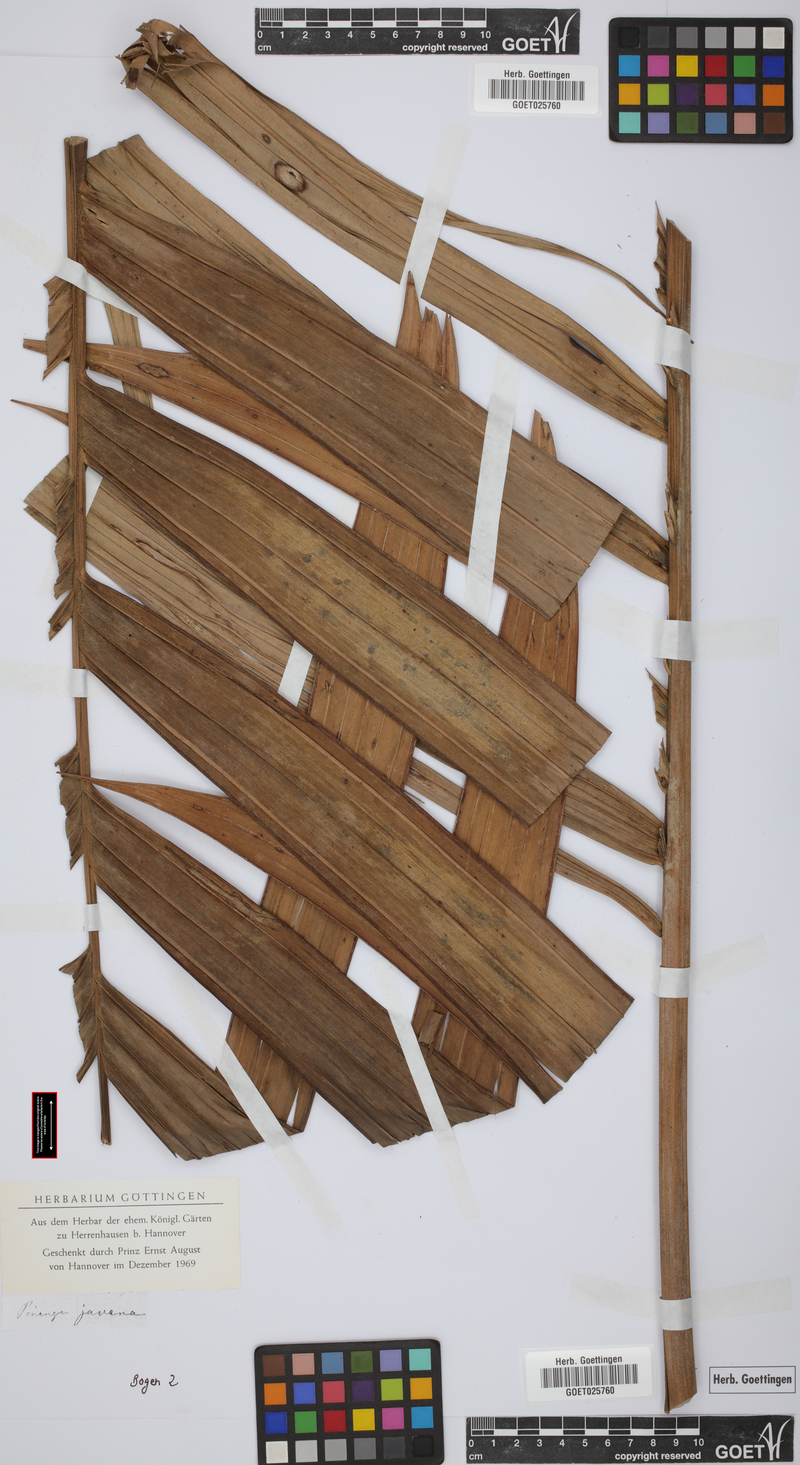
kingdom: Plantae
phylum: Tracheophyta
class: Liliopsida
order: Arecales
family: Arecaceae
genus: Pinanga
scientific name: Pinanga javana
